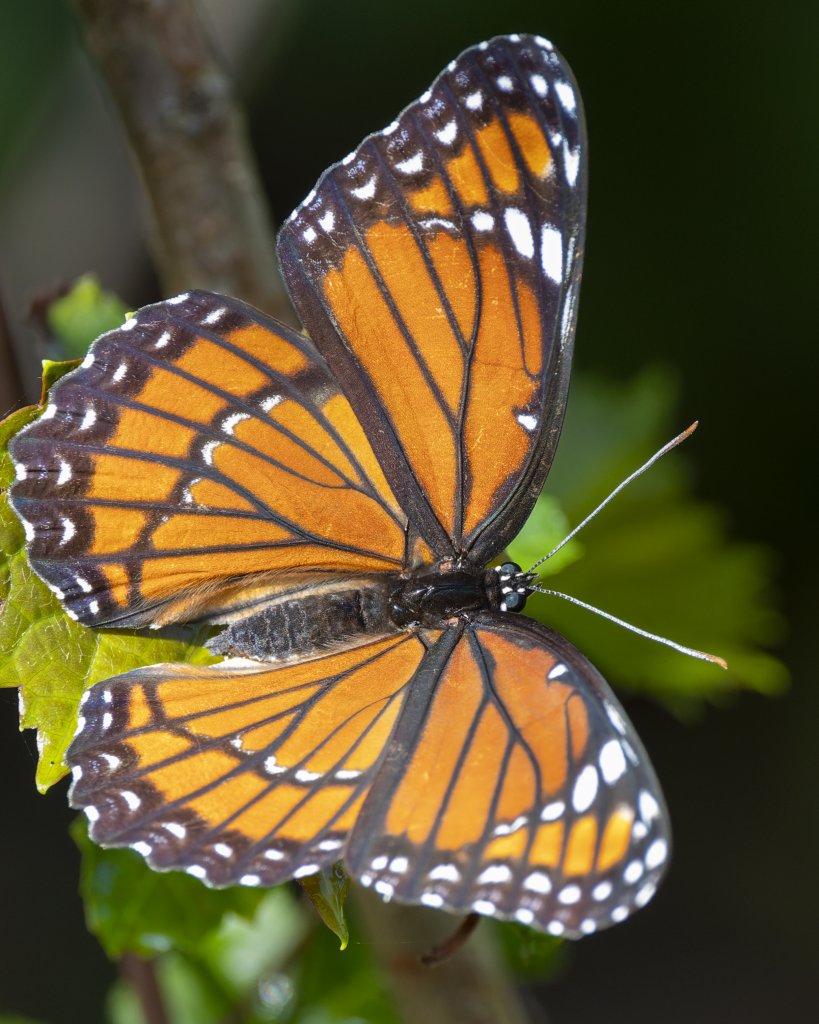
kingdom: Animalia
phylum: Arthropoda
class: Insecta
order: Lepidoptera
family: Nymphalidae
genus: Limenitis
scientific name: Limenitis archippus
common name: Viceroy
